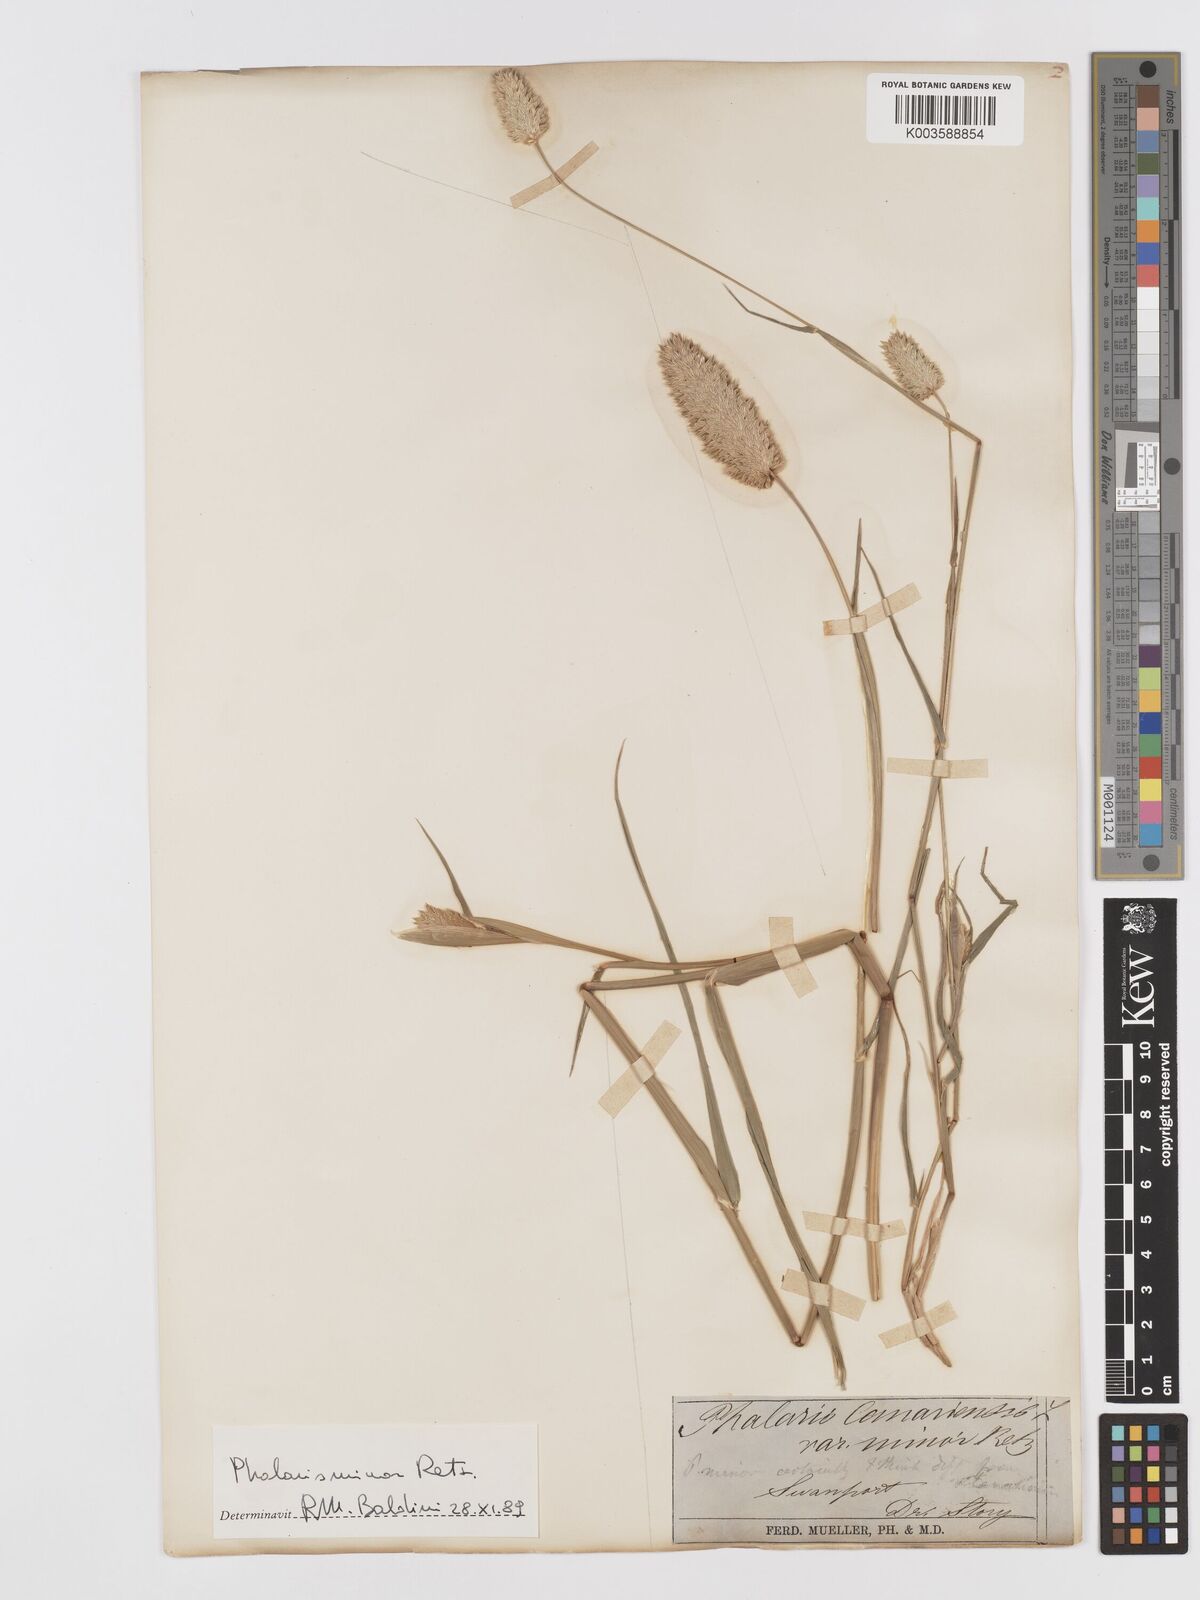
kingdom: Plantae
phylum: Tracheophyta
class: Liliopsida
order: Poales
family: Poaceae
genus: Phalaris
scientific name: Phalaris minor
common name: Littleseed canarygrass
